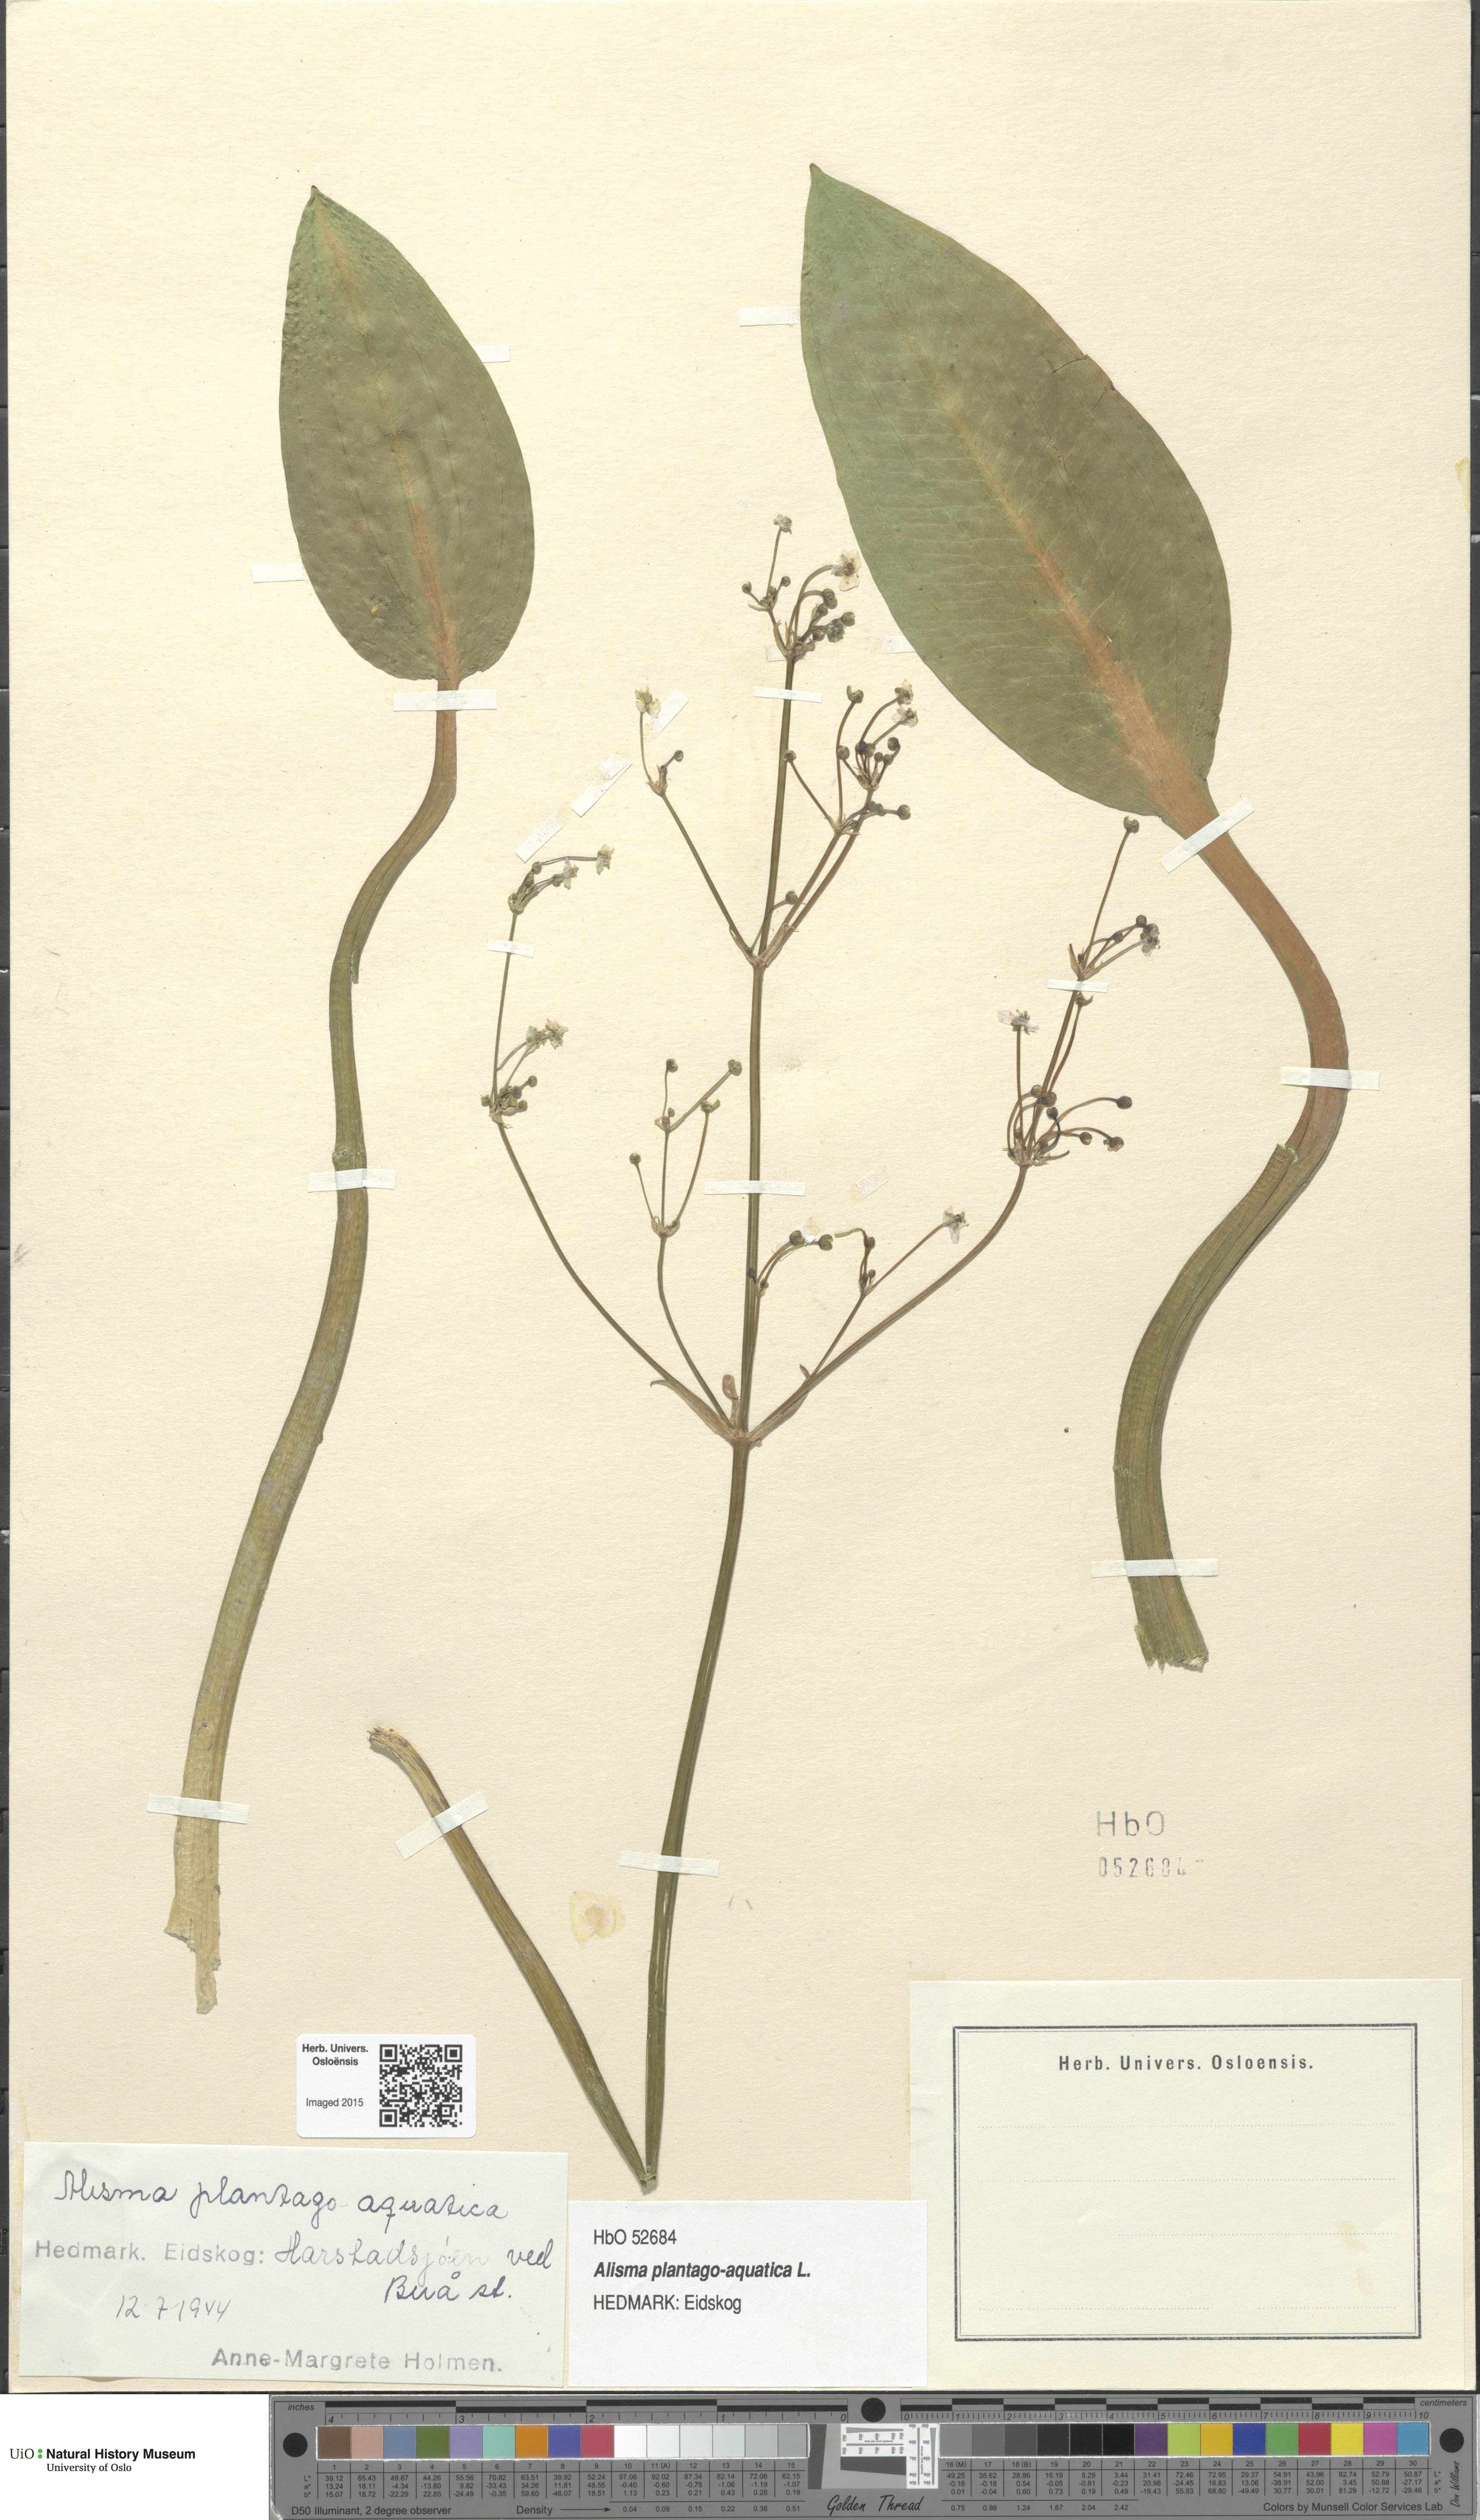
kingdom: Plantae
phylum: Tracheophyta
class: Liliopsida
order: Alismatales
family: Alismataceae
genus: Alisma
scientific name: Alisma plantago-aquatica
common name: Water-plantain
